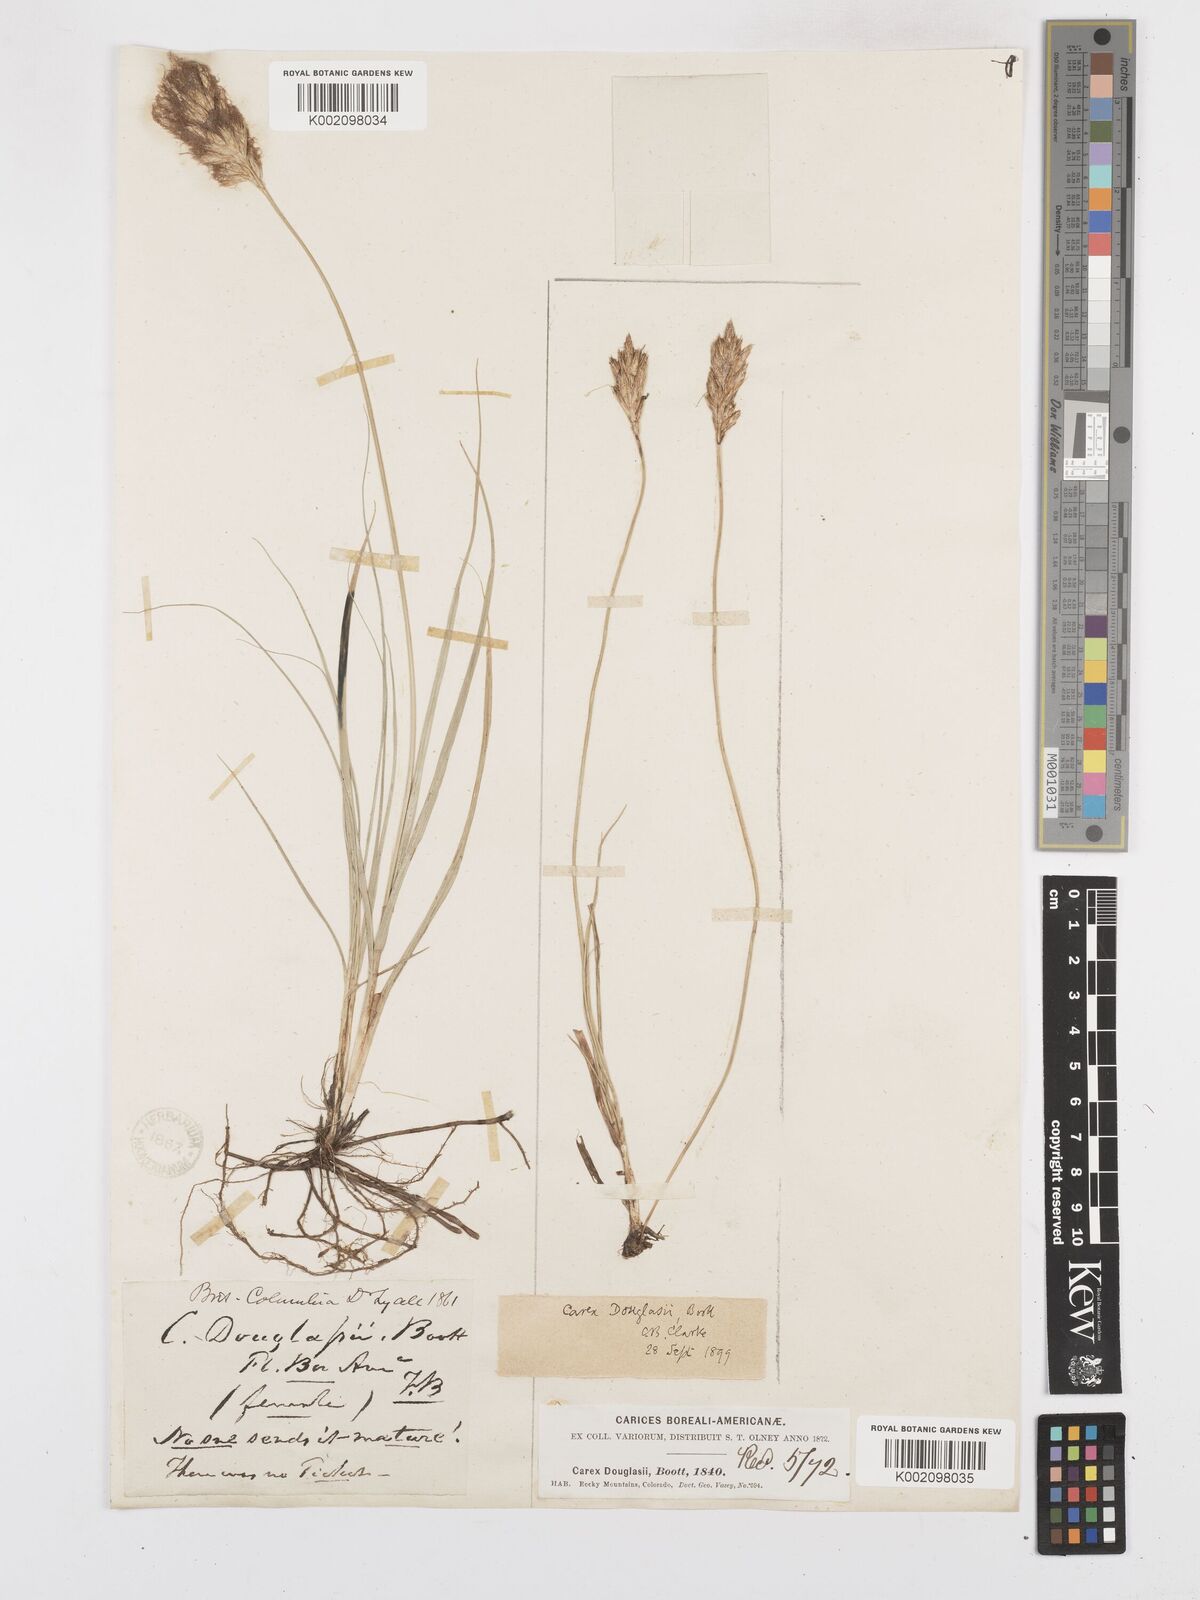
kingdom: Plantae
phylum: Tracheophyta
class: Liliopsida
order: Poales
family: Cyperaceae
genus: Carex
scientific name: Carex douglasii
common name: Douglas' sedge
